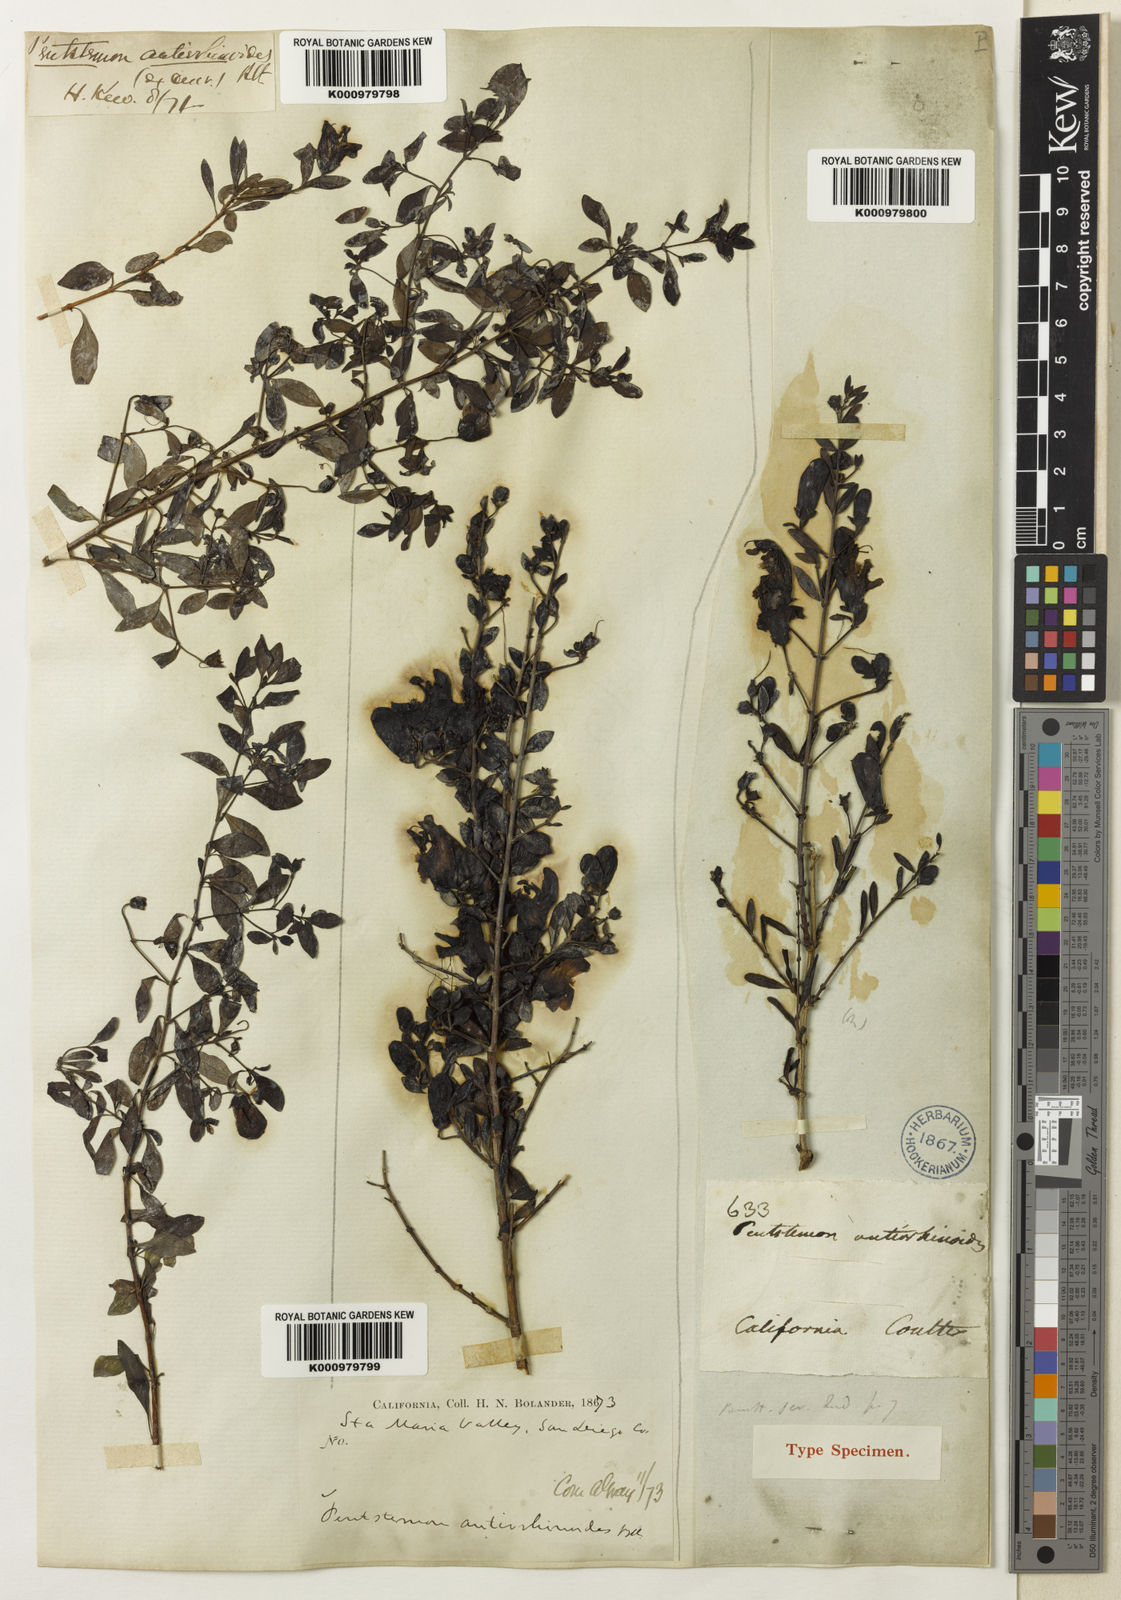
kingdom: Plantae
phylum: Tracheophyta
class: Magnoliopsida
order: Lamiales
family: Plantaginaceae
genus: Keckiella
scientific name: Keckiella antirrhinoides
